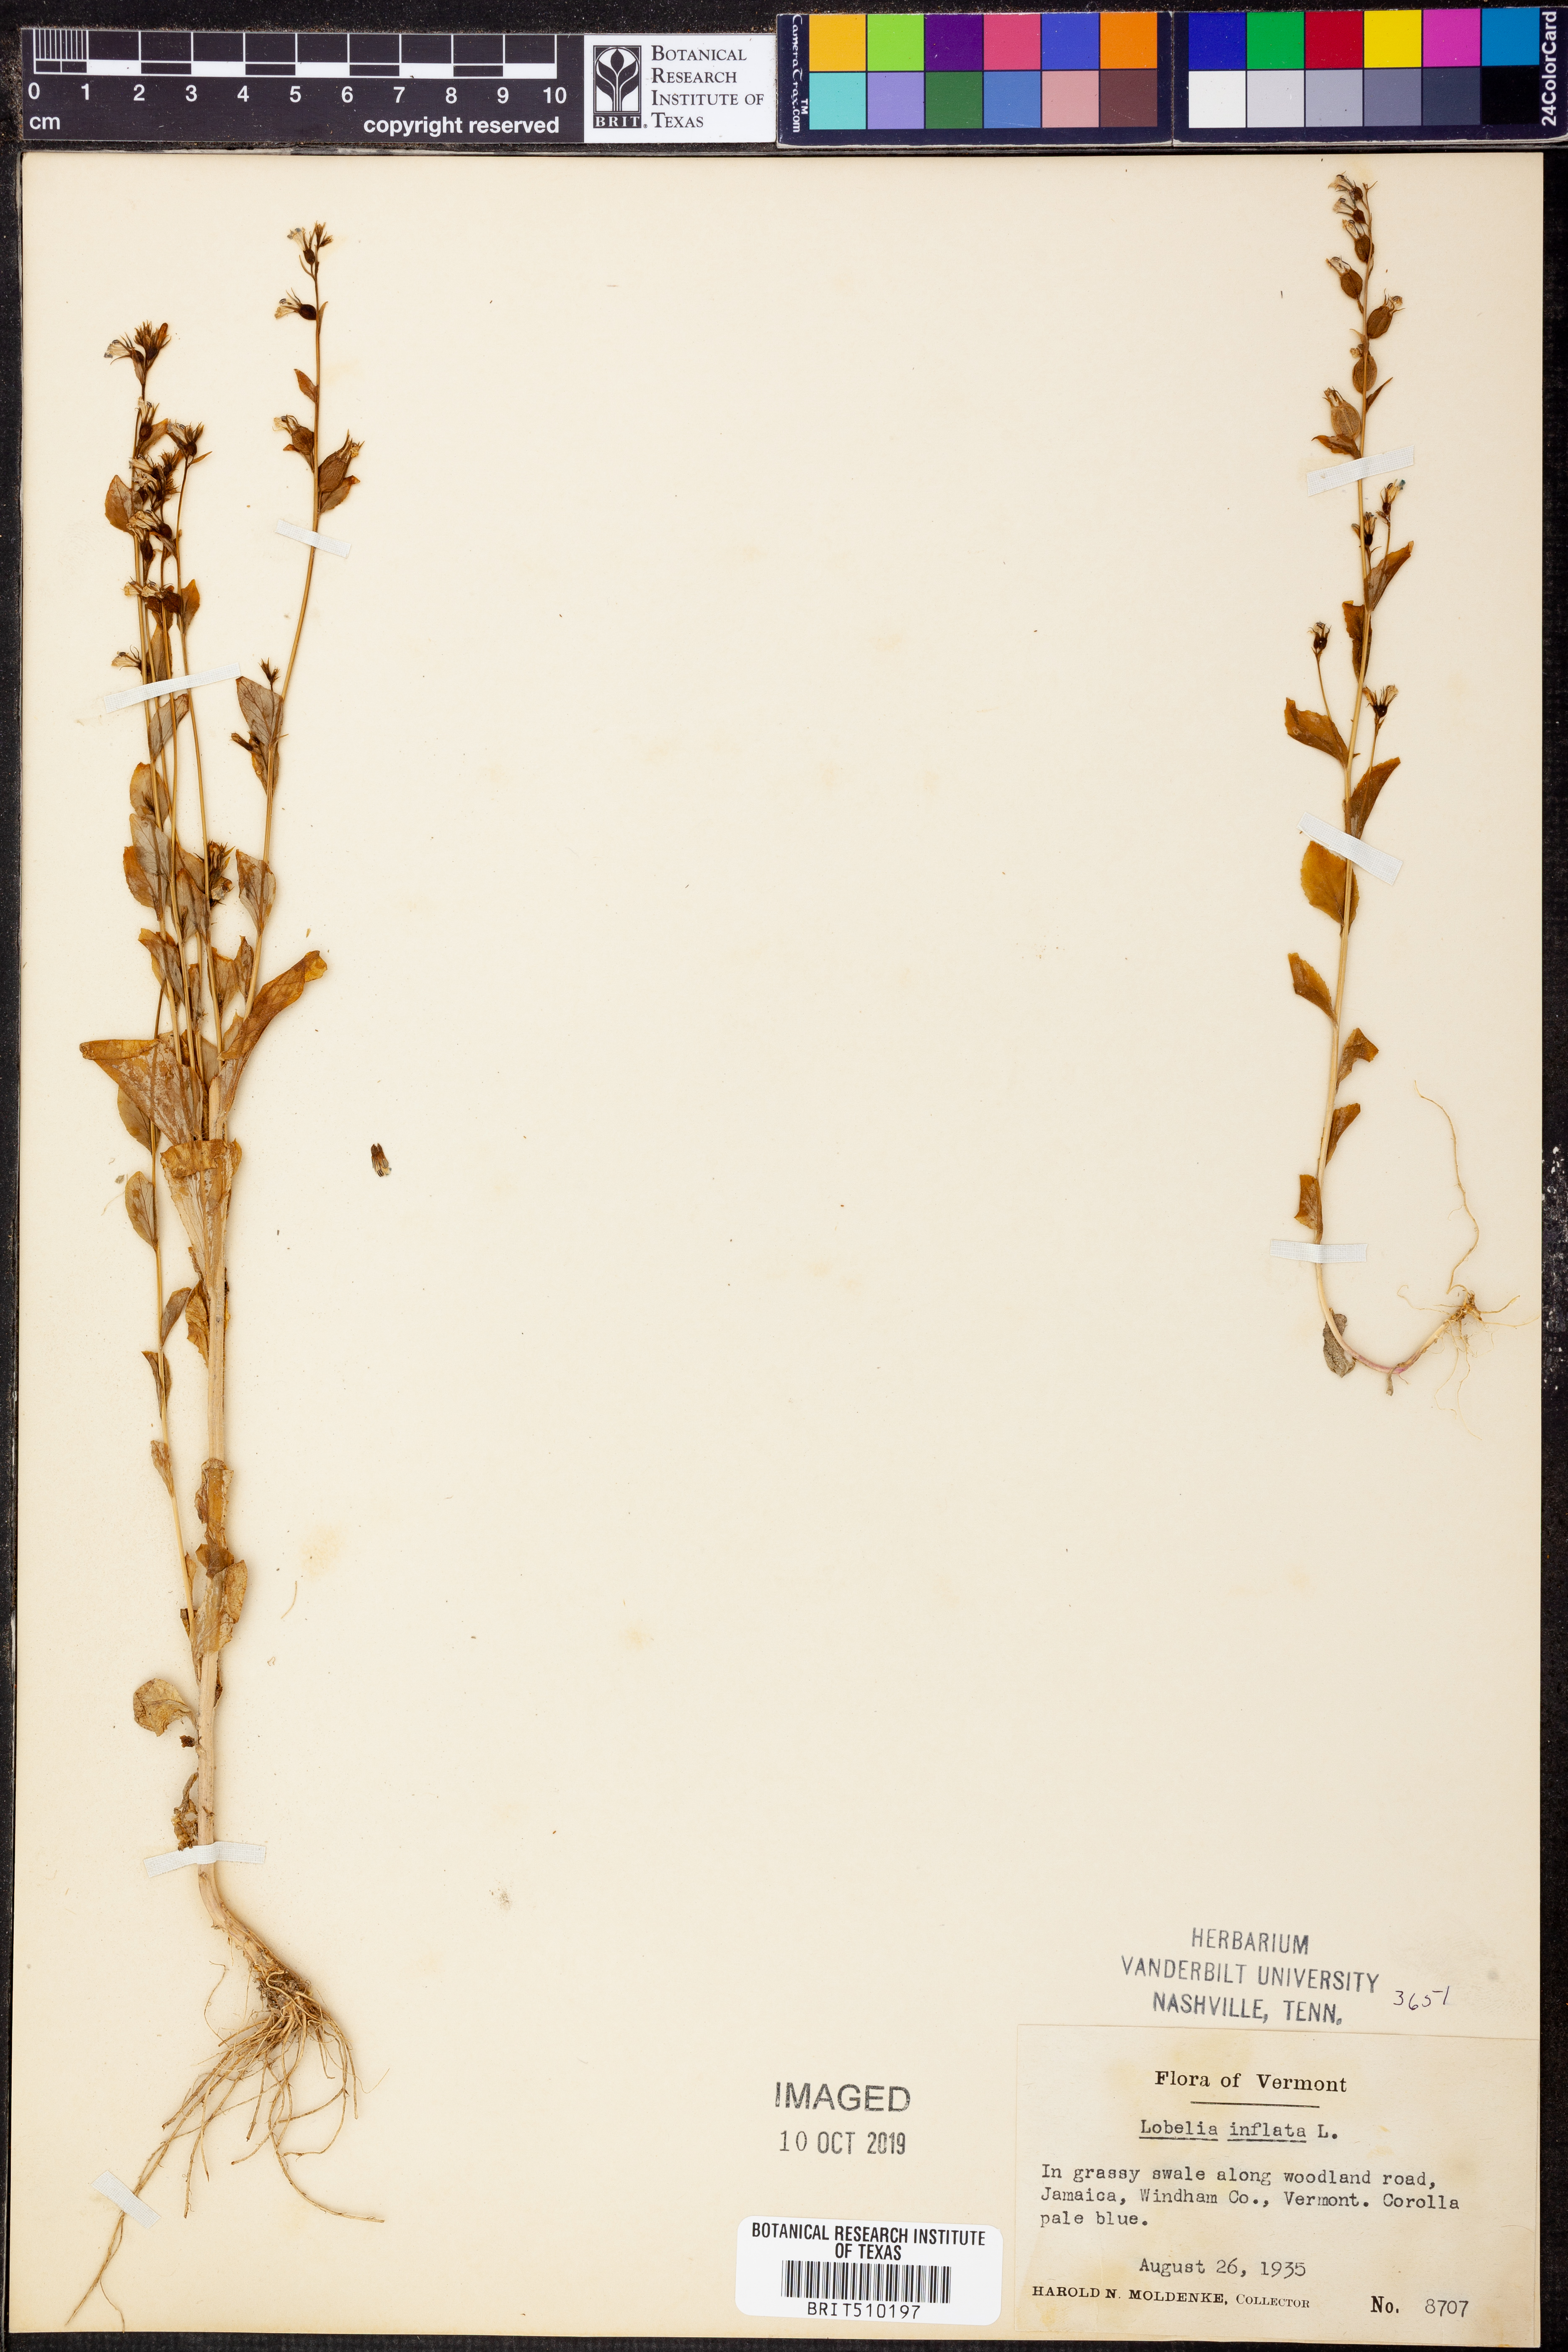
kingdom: Plantae
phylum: Tracheophyta
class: Magnoliopsida
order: Asterales
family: Campanulaceae
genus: Lobelia
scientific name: Lobelia inflata
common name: Indian tobacco
